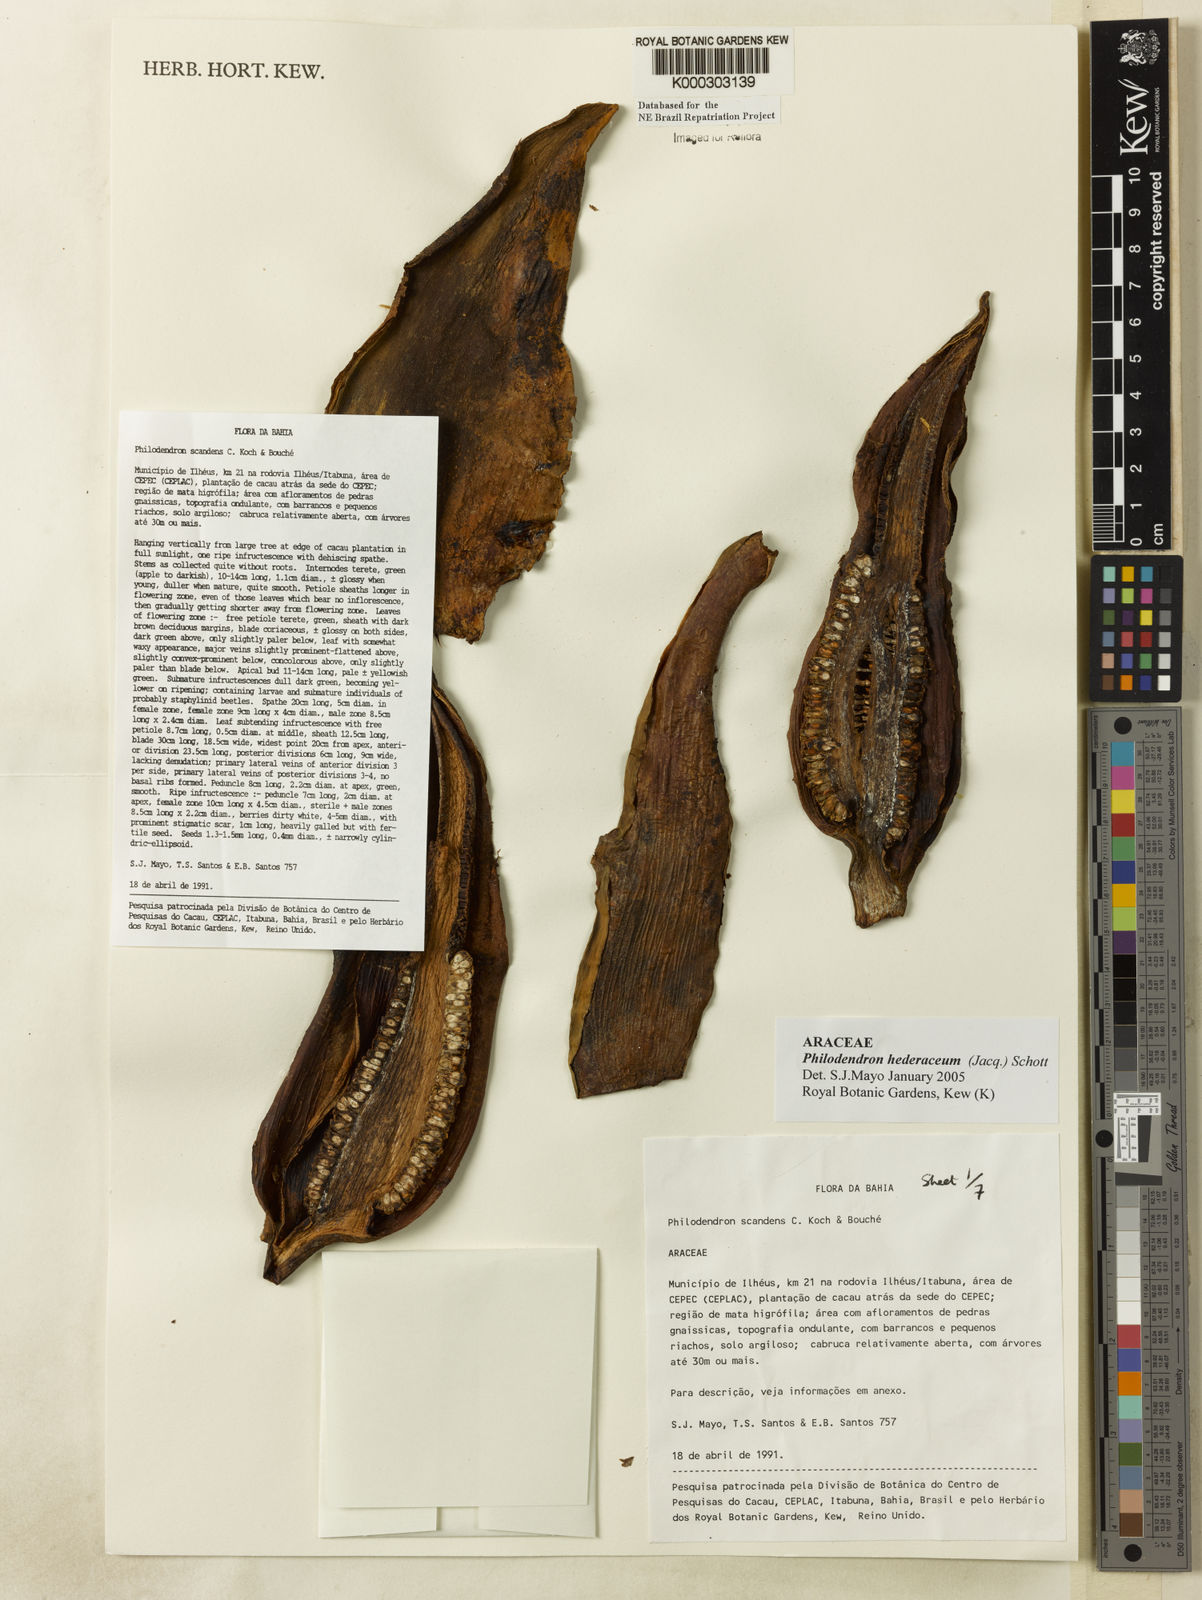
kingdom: Plantae
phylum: Tracheophyta
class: Liliopsida
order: Alismatales
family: Araceae
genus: Philodendron
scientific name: Philodendron hederaceum
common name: Vilevine
